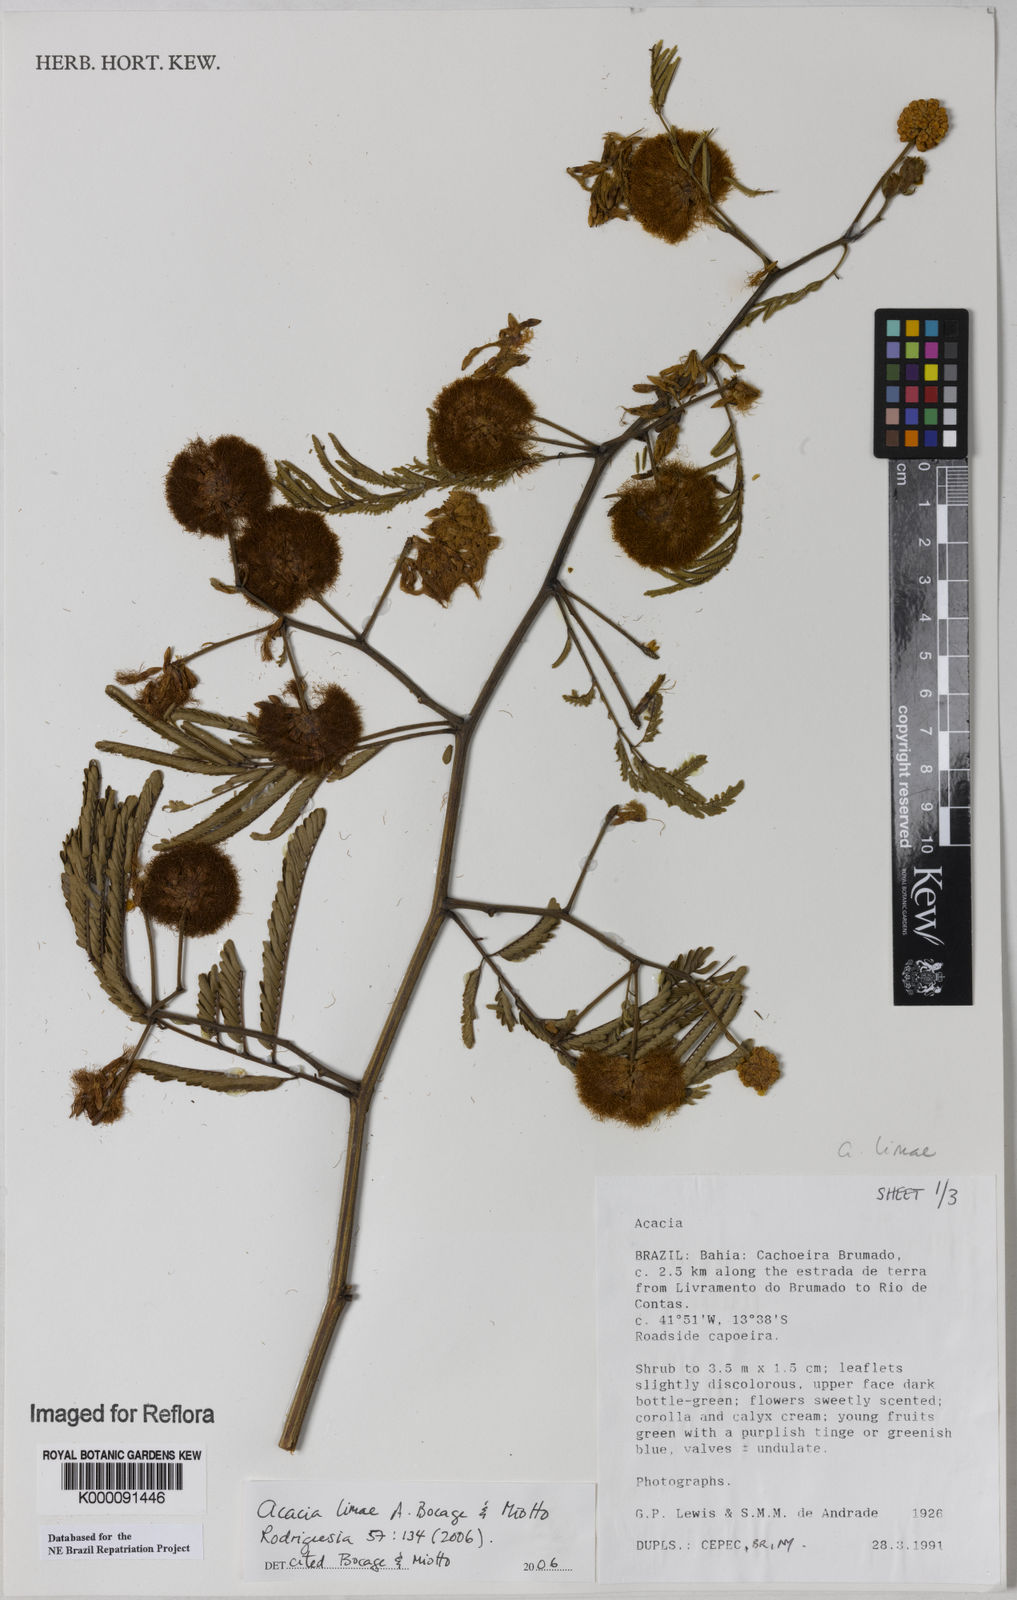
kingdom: Plantae
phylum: Tracheophyta
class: Magnoliopsida
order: Fabales
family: Fabaceae
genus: Senegalia
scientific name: Senegalia lasiophylla
